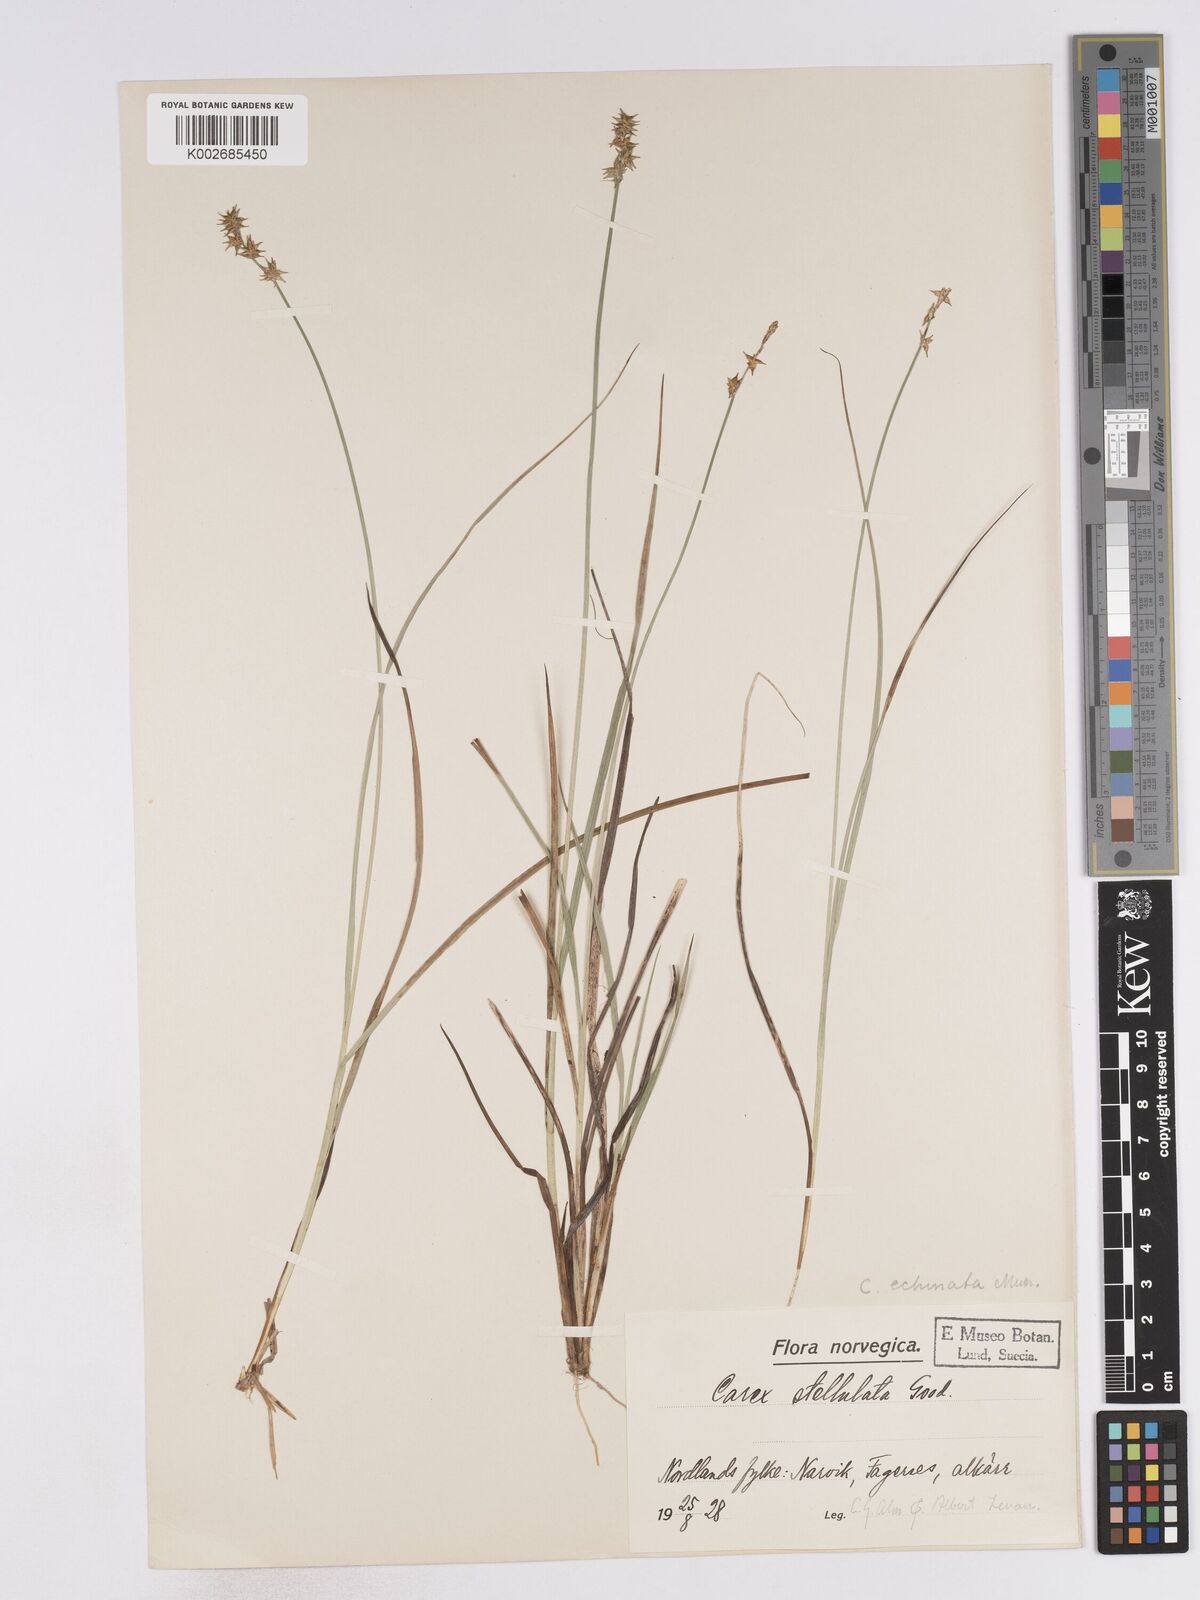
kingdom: Plantae
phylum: Tracheophyta
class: Liliopsida
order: Poales
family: Cyperaceae
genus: Carex
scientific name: Carex echinata
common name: Star sedge
